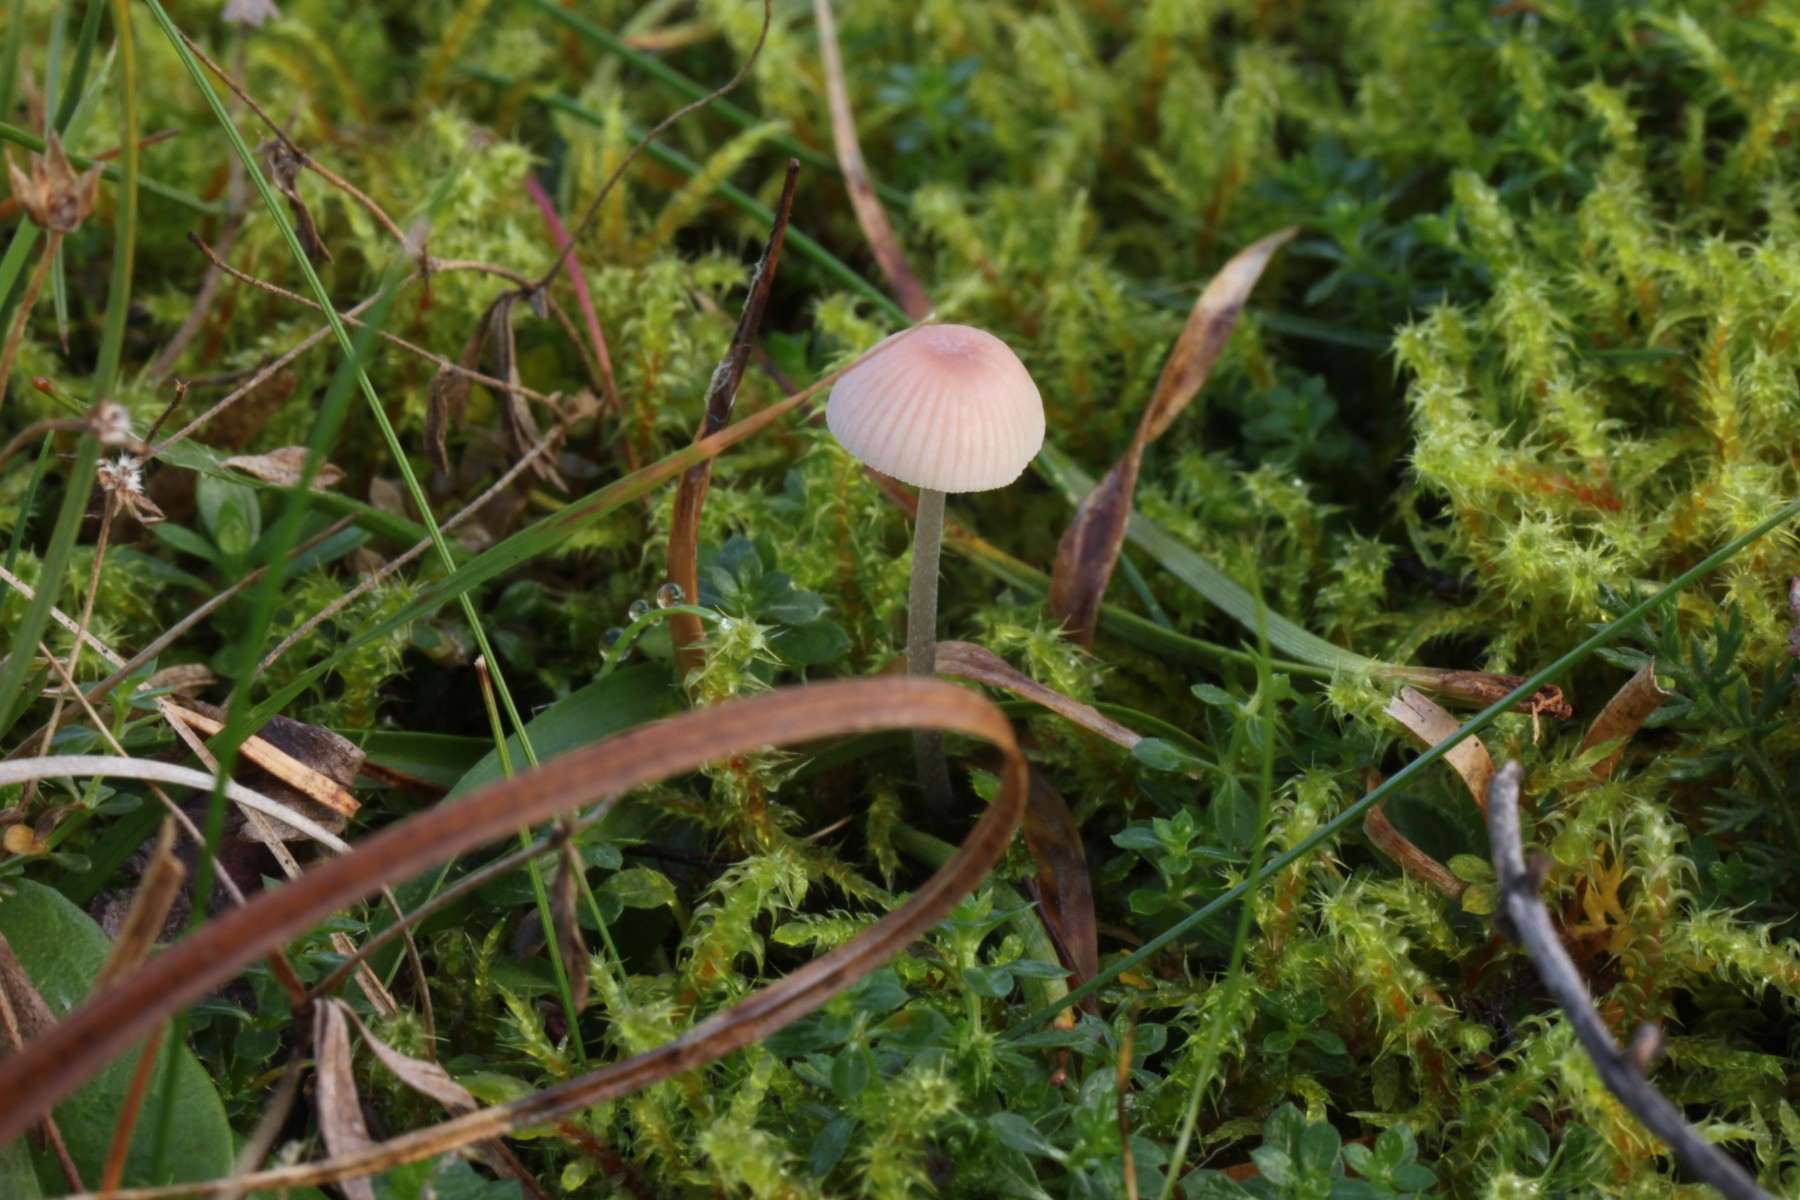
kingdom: Fungi
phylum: Basidiomycota
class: Agaricomycetes
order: Agaricales
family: Mycenaceae
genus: Mycena
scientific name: Mycena metata
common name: rødlig huesvamp
